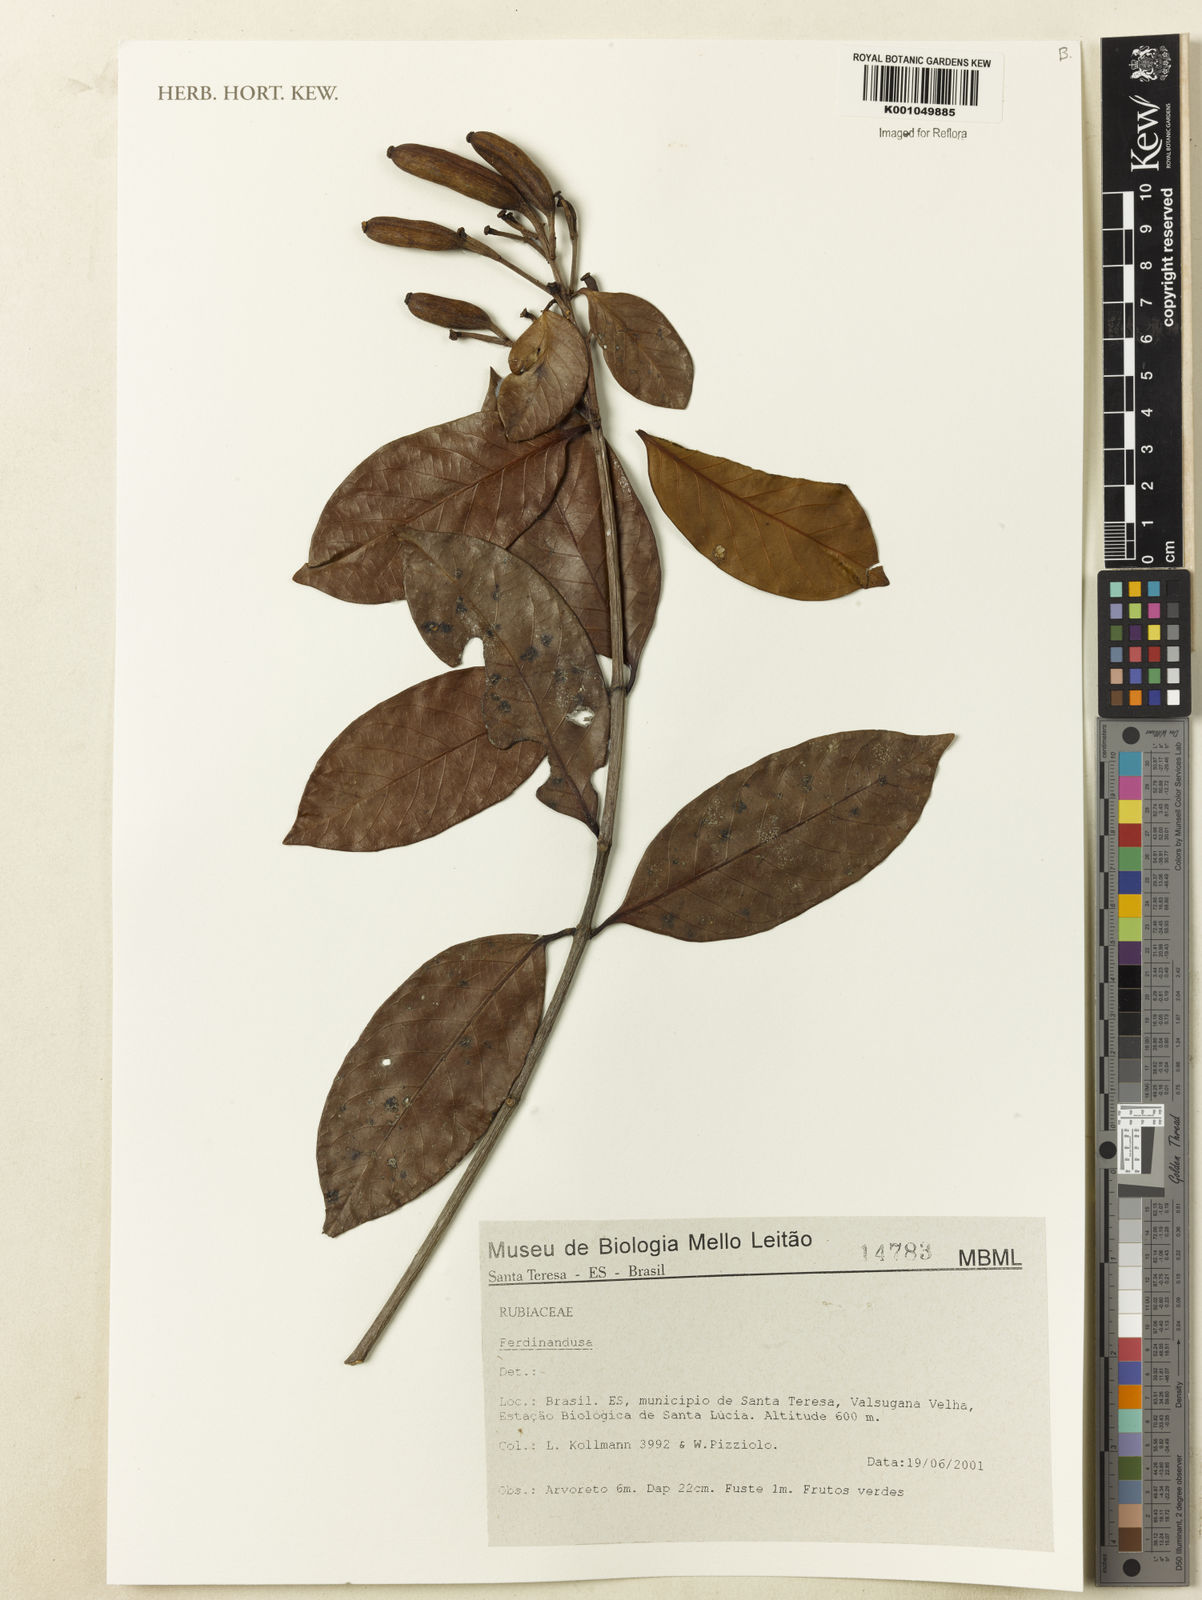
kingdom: Plantae
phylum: Tracheophyta
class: Magnoliopsida
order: Gentianales
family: Rubiaceae
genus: Ferdinandusa
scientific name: Ferdinandusa
